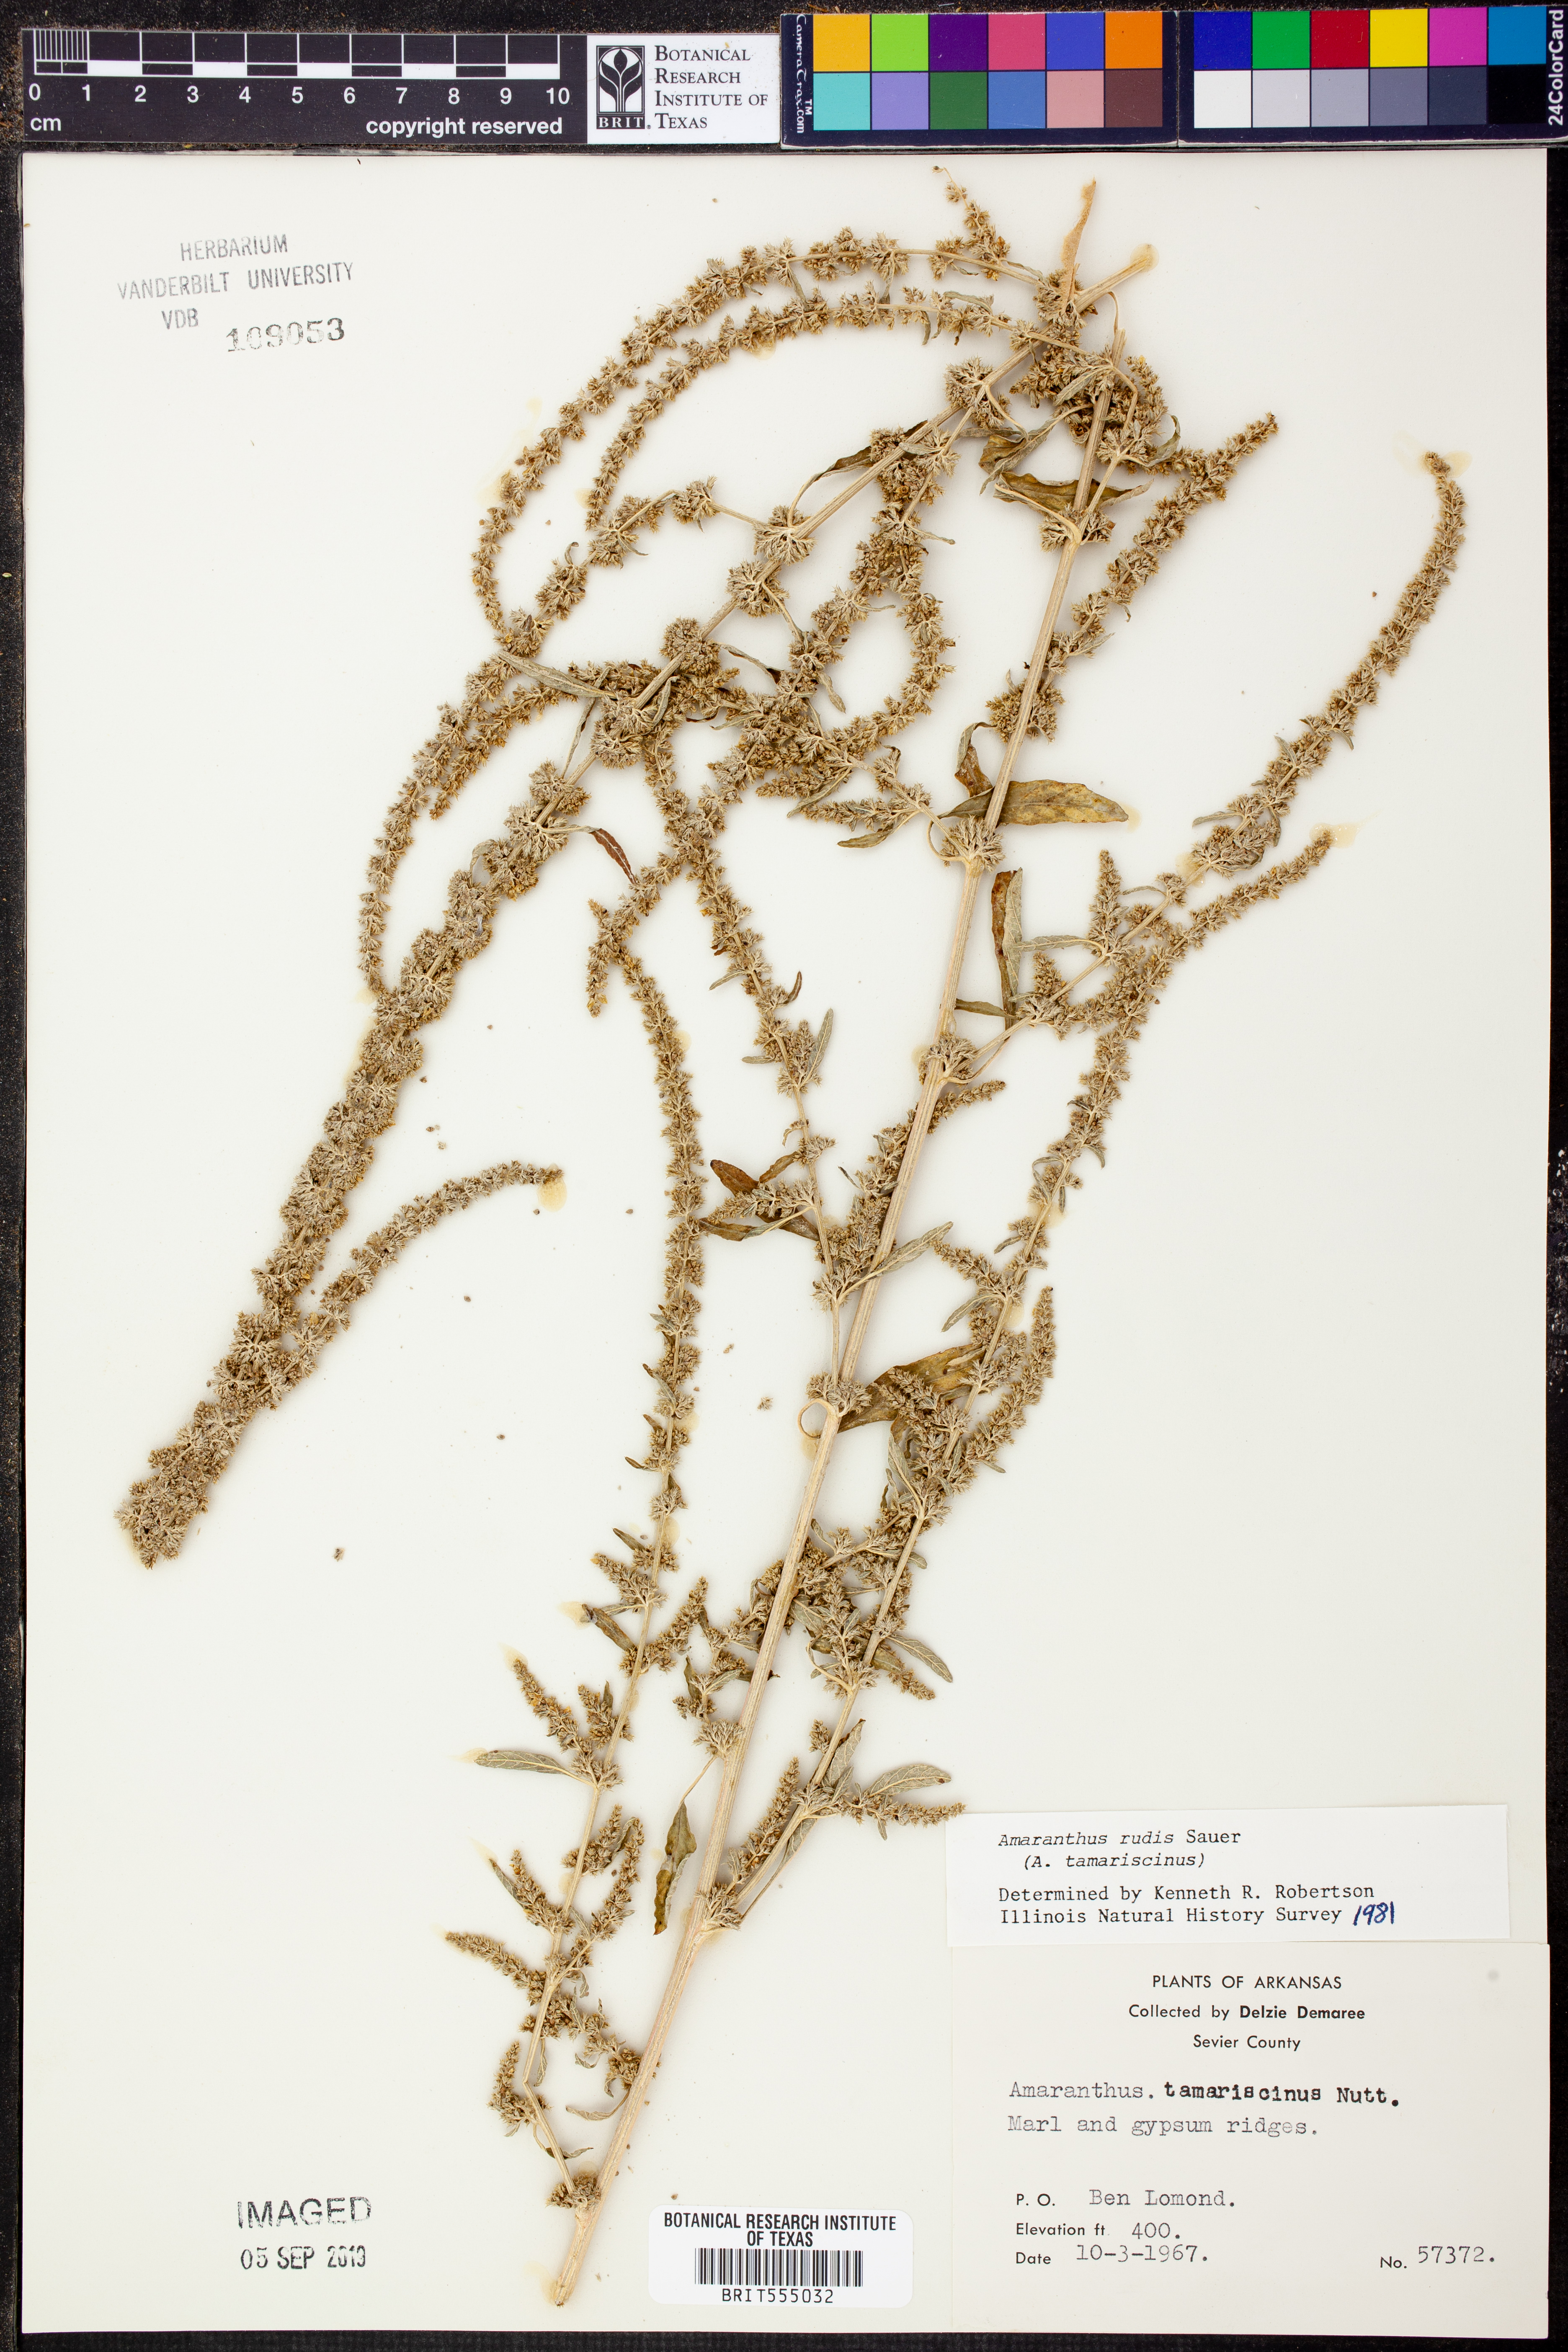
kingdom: Plantae
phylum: Tracheophyta
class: Magnoliopsida
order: Caryophyllales
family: Amaranthaceae
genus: Amaranthus
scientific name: Amaranthus tuberculatus
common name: Rough-fruit amaranth
